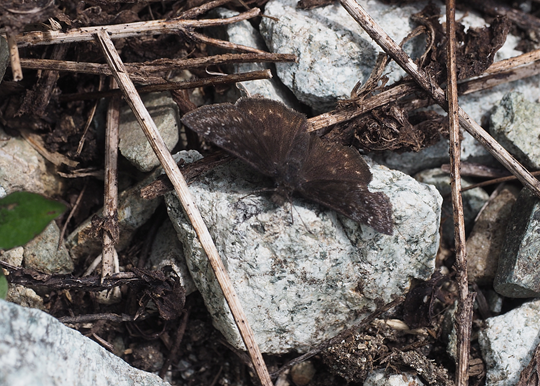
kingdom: Animalia
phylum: Arthropoda
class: Insecta
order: Lepidoptera
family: Hesperiidae
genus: Gesta
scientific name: Gesta
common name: Persius Duskywing
